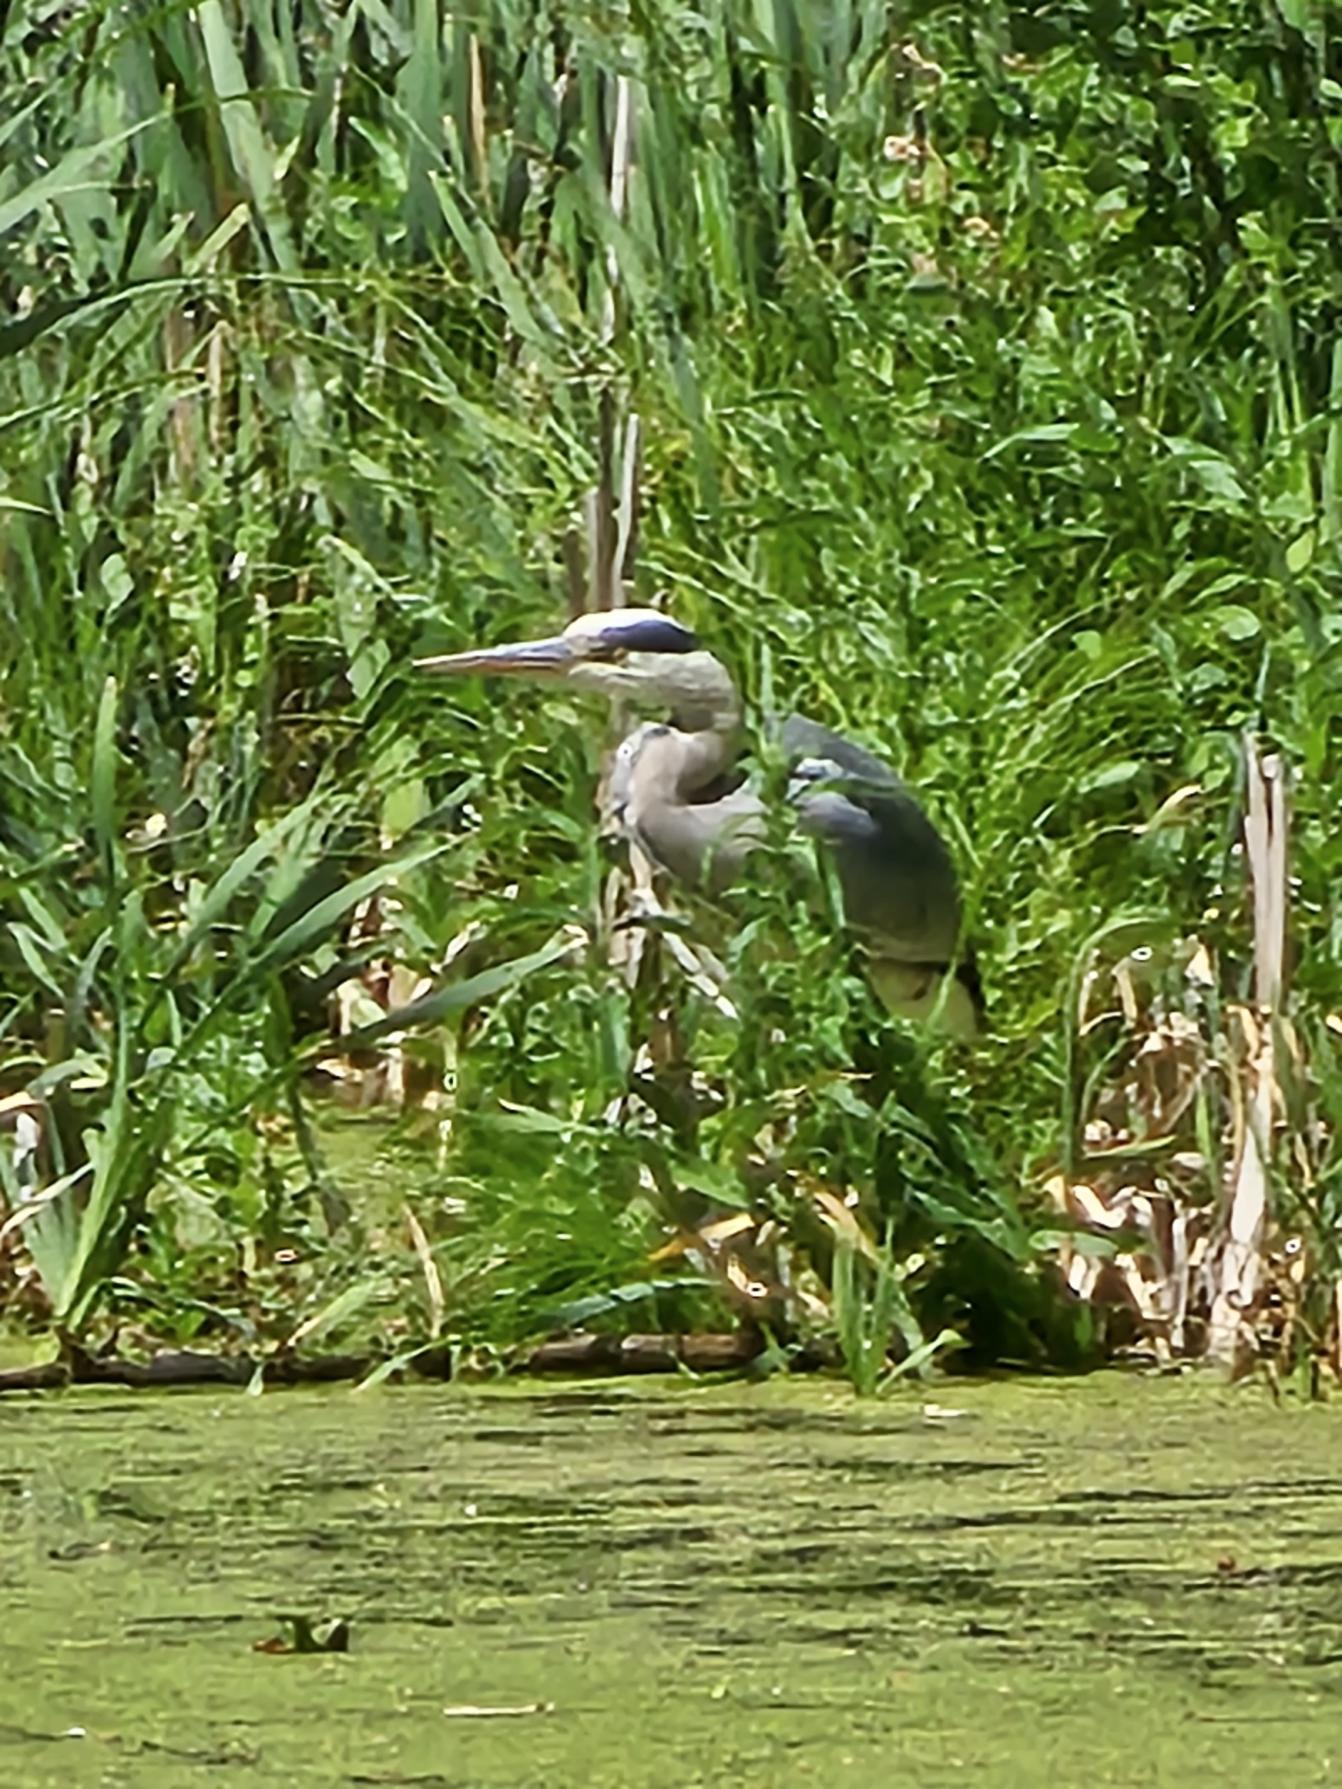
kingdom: Animalia
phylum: Chordata
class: Aves
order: Pelecaniformes
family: Ardeidae
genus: Ardea
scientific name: Ardea cinerea
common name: Fiskehejre
